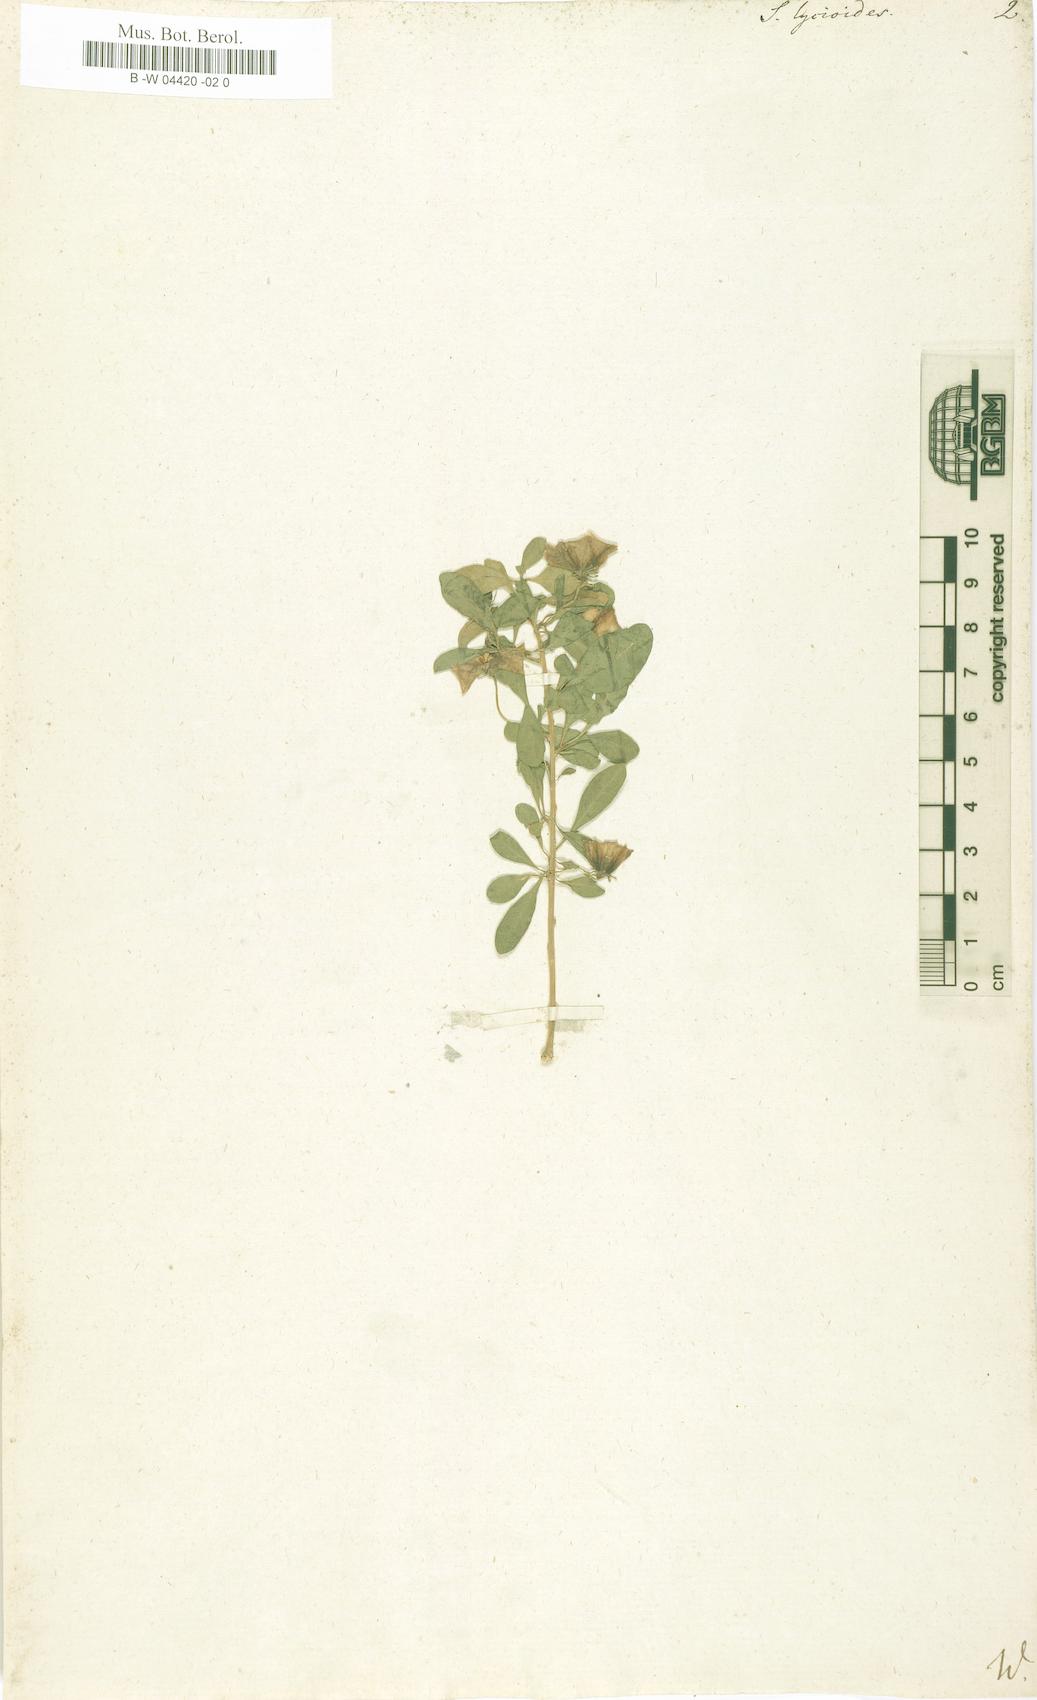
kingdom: Plantae
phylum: Tracheophyta
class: Magnoliopsida
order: Solanales
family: Solanaceae
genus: Lycianthes
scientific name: Lycianthes lycioides
